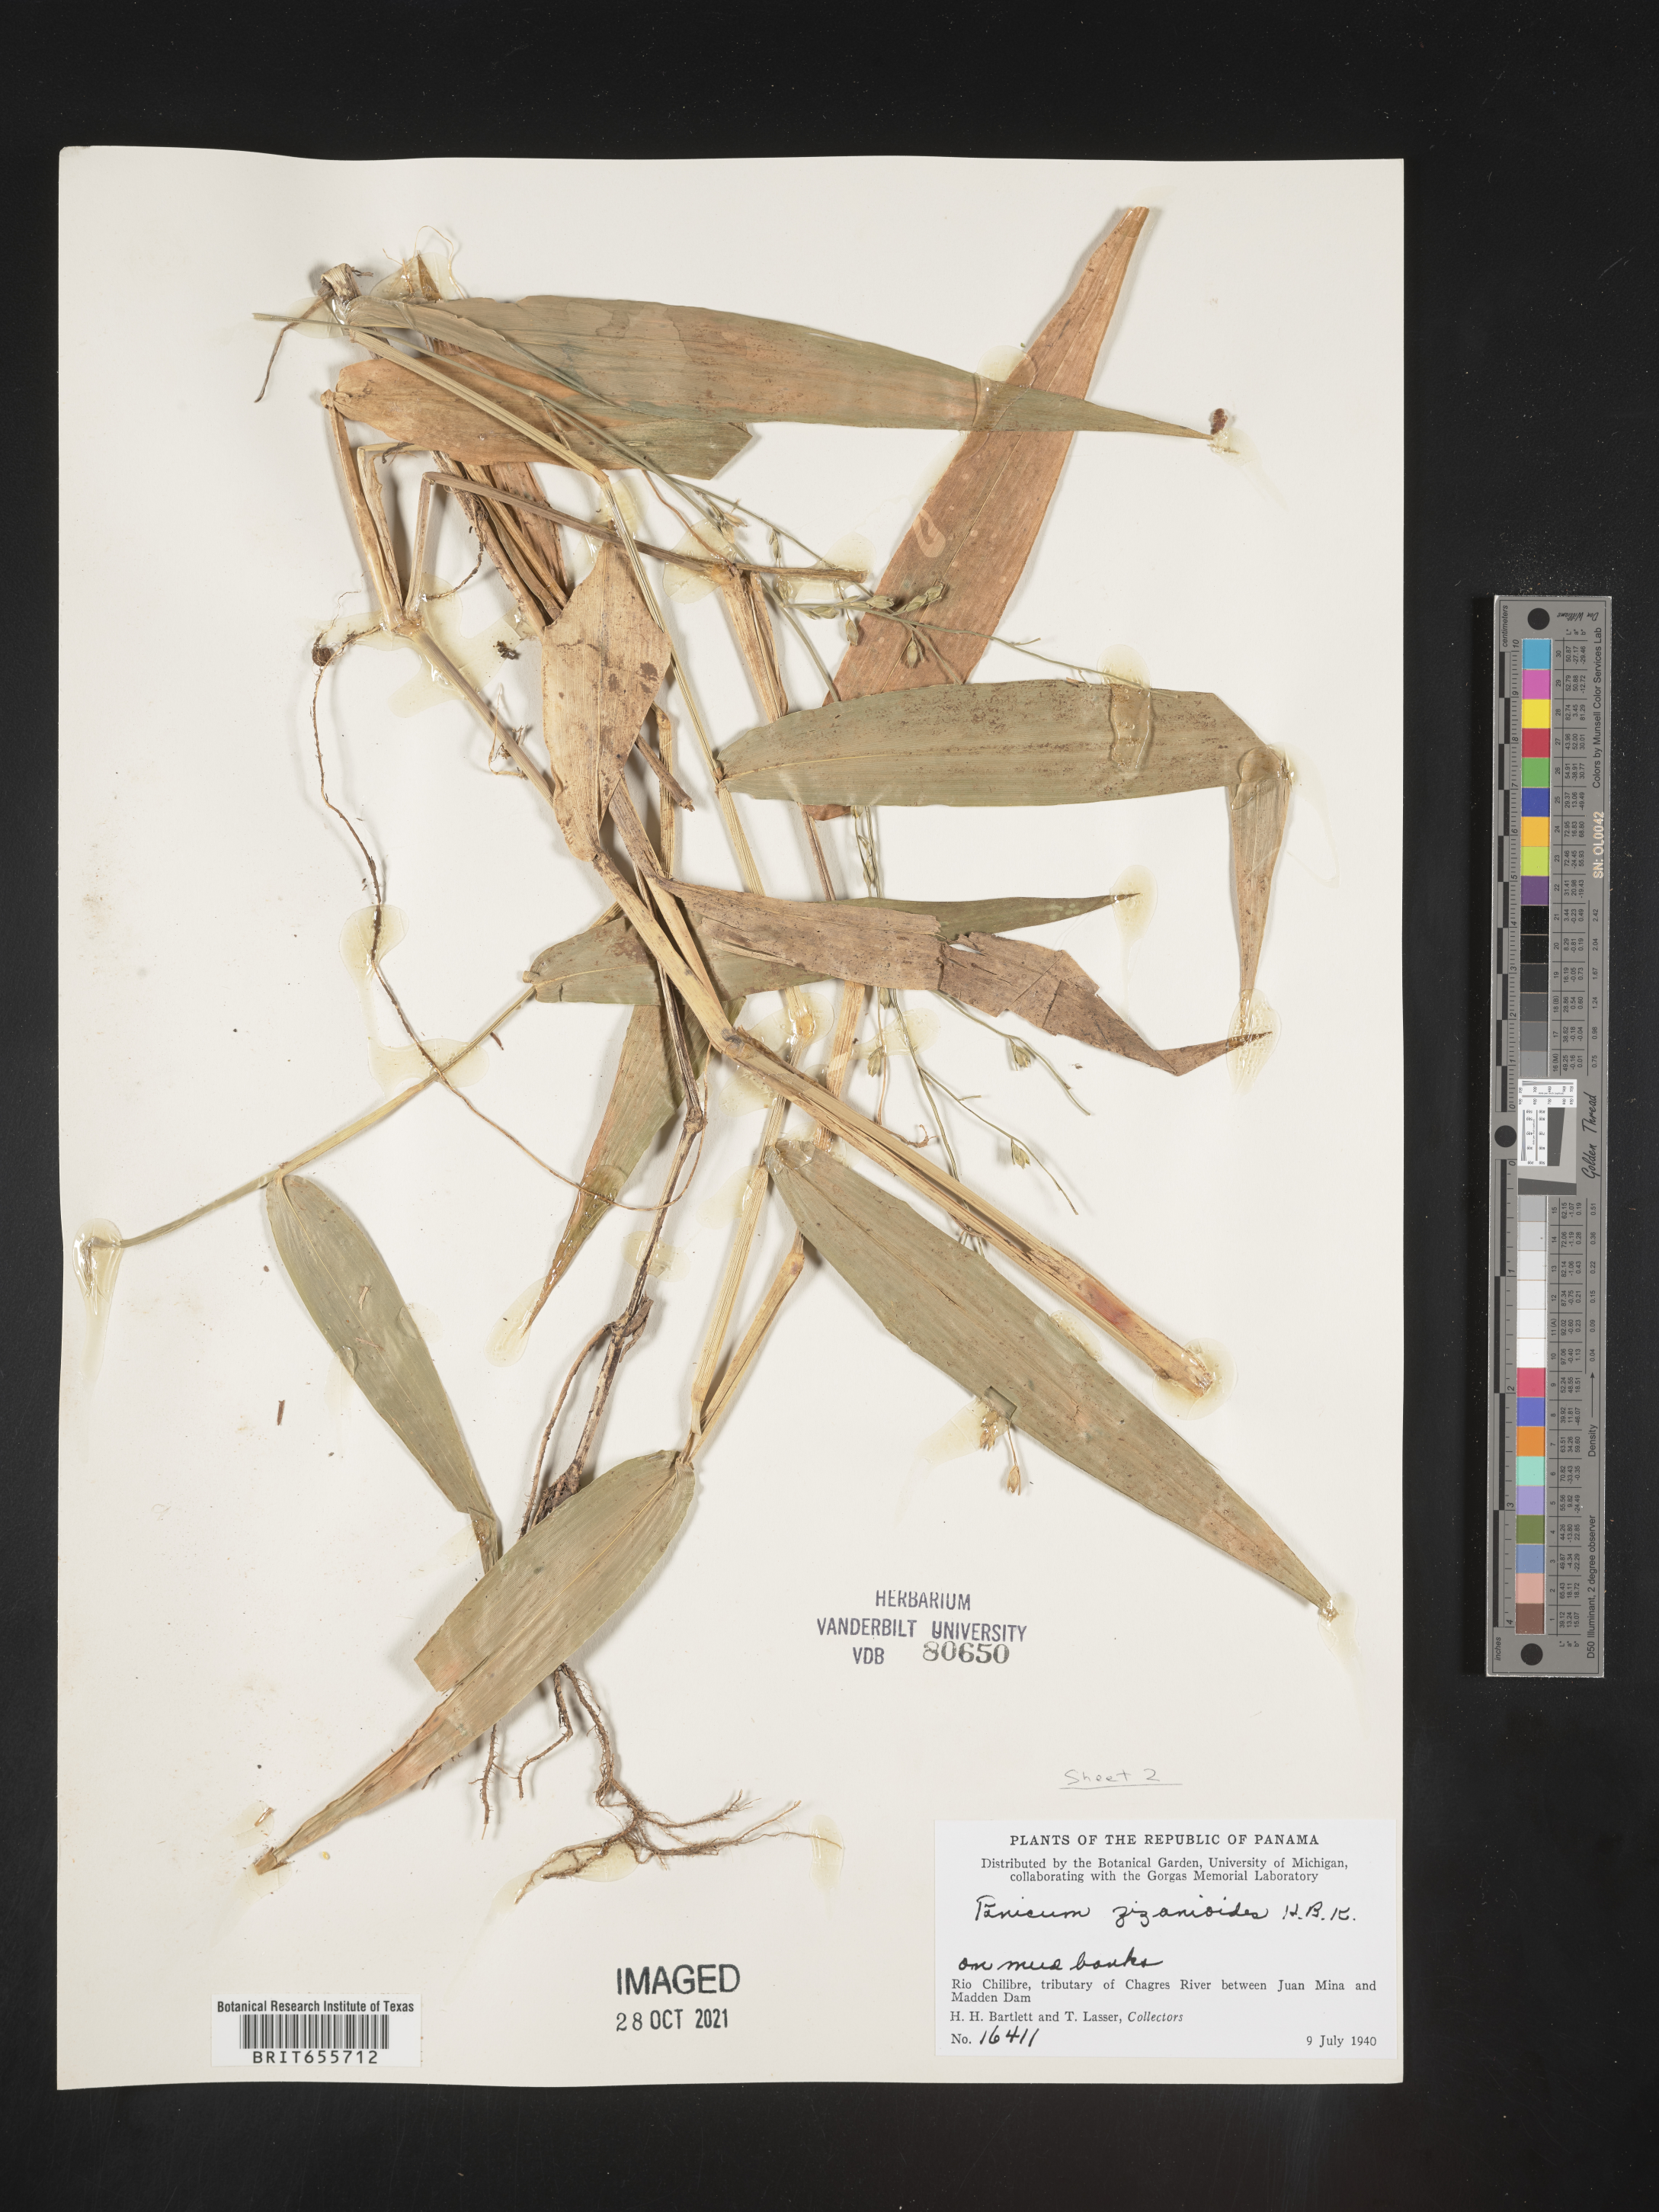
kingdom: Plantae
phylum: Tracheophyta
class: Liliopsida
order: Poales
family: Poaceae
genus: Panicum
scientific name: Panicum
